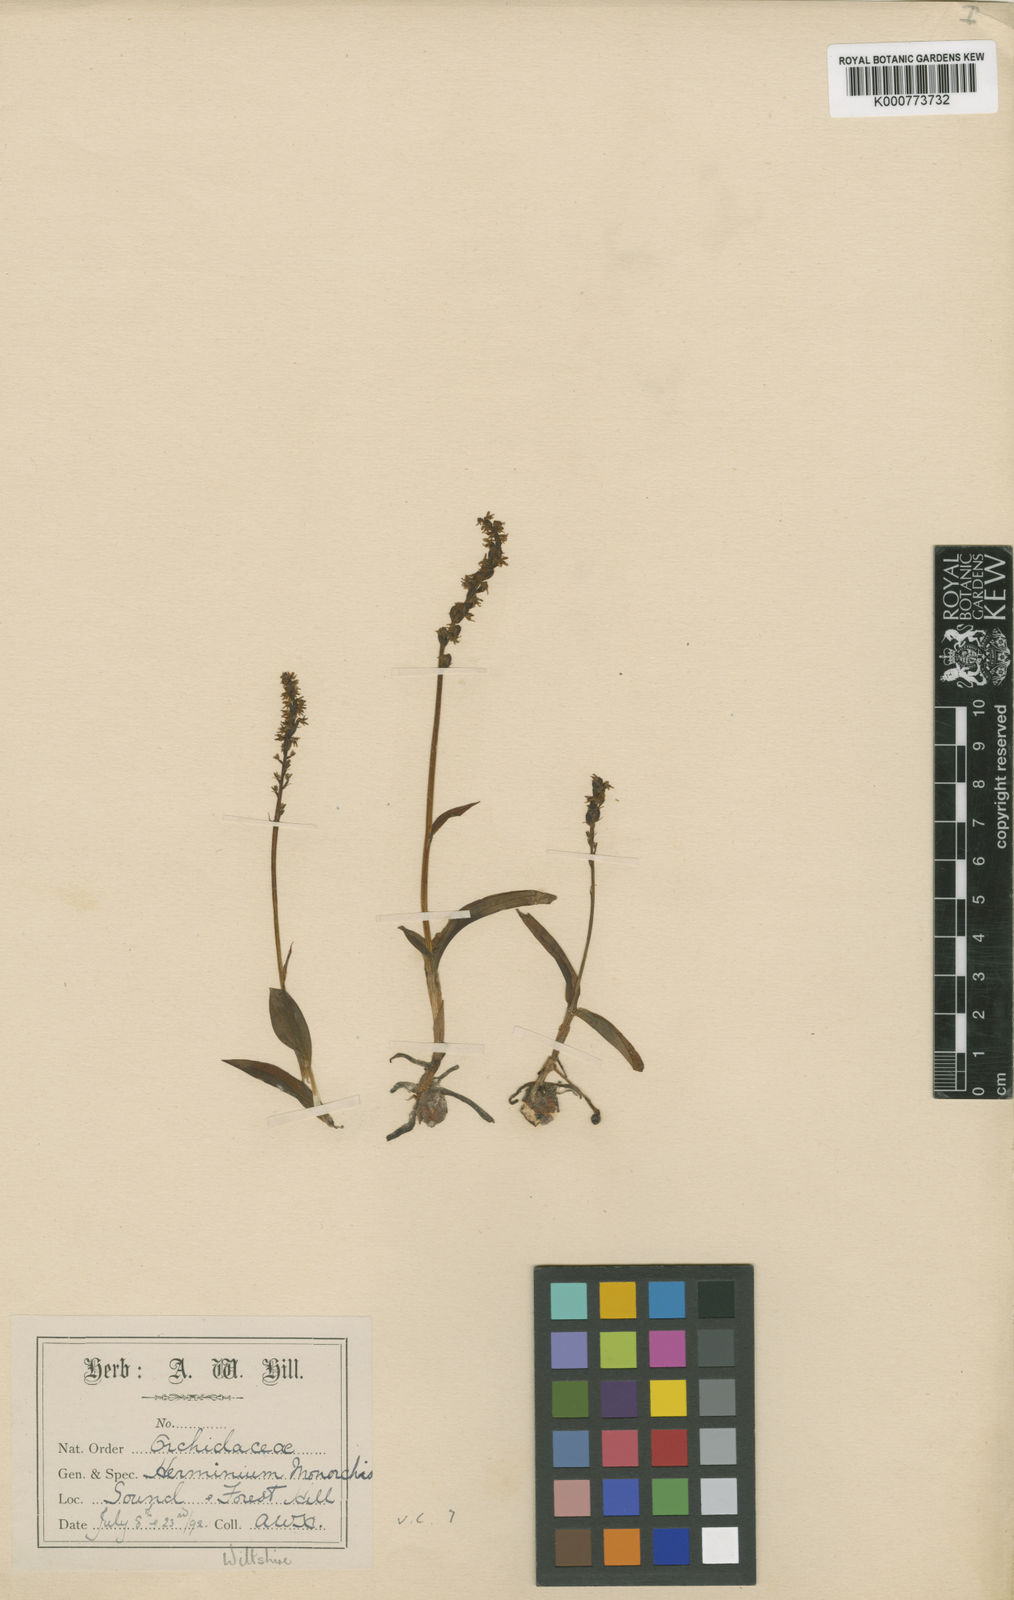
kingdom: Plantae
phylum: Tracheophyta
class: Liliopsida
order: Asparagales
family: Orchidaceae
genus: Herminium
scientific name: Herminium monorchis
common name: Musk orchid
